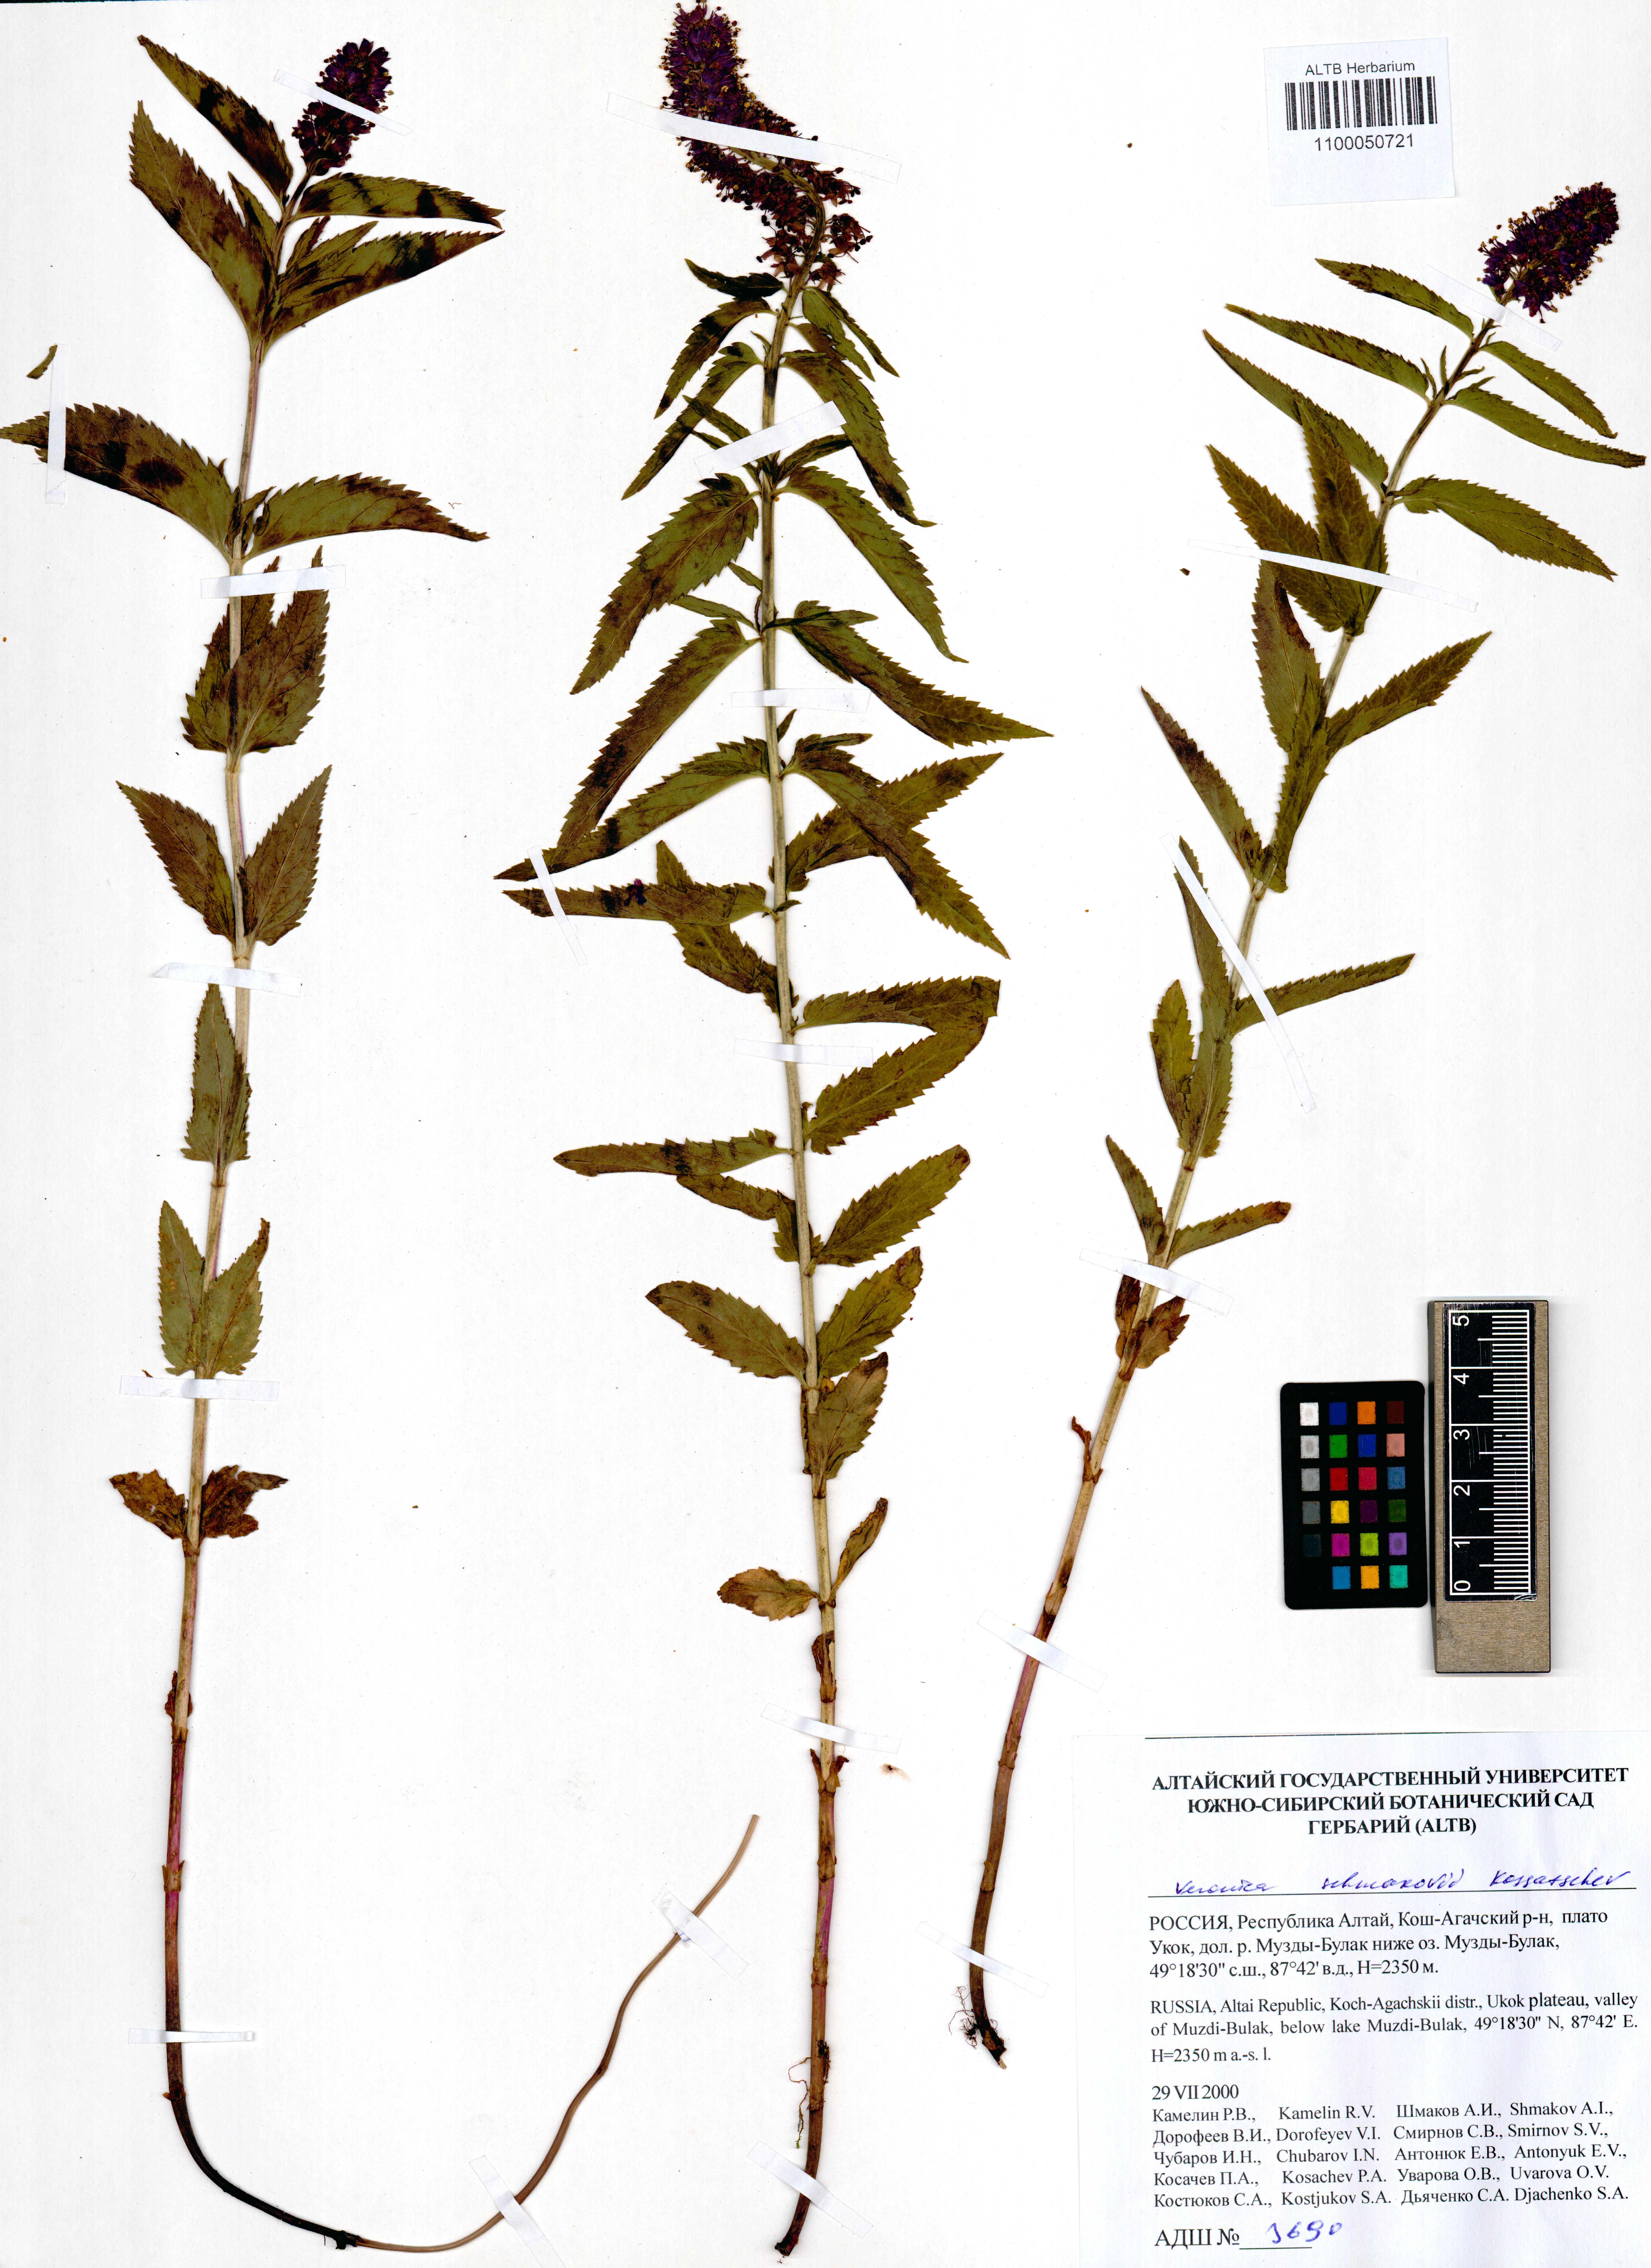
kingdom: Plantae
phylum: Tracheophyta
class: Magnoliopsida
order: Lamiales
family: Plantaginaceae
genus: Veronica
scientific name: Veronica schmakovii
